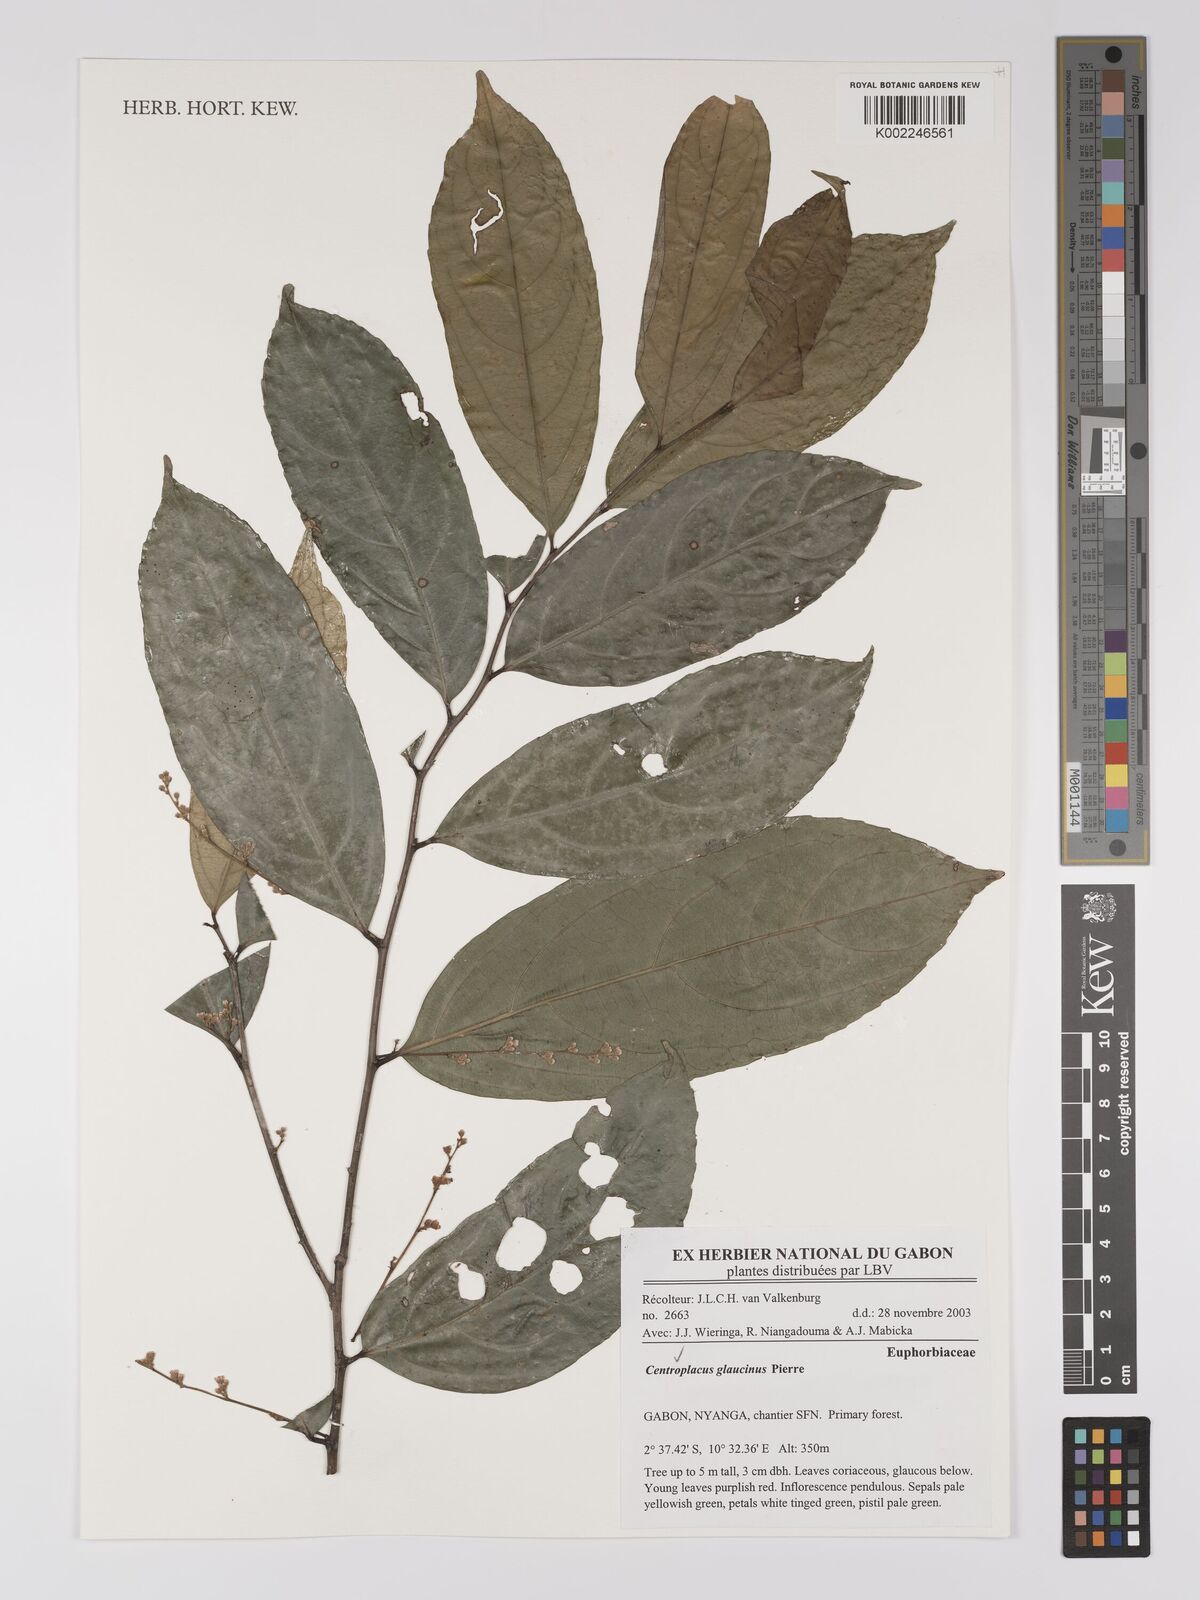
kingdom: Plantae
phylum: Tracheophyta
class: Magnoliopsida
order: Malpighiales
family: Centroplacaceae
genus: Centroplacus
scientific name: Centroplacus glaucinus
